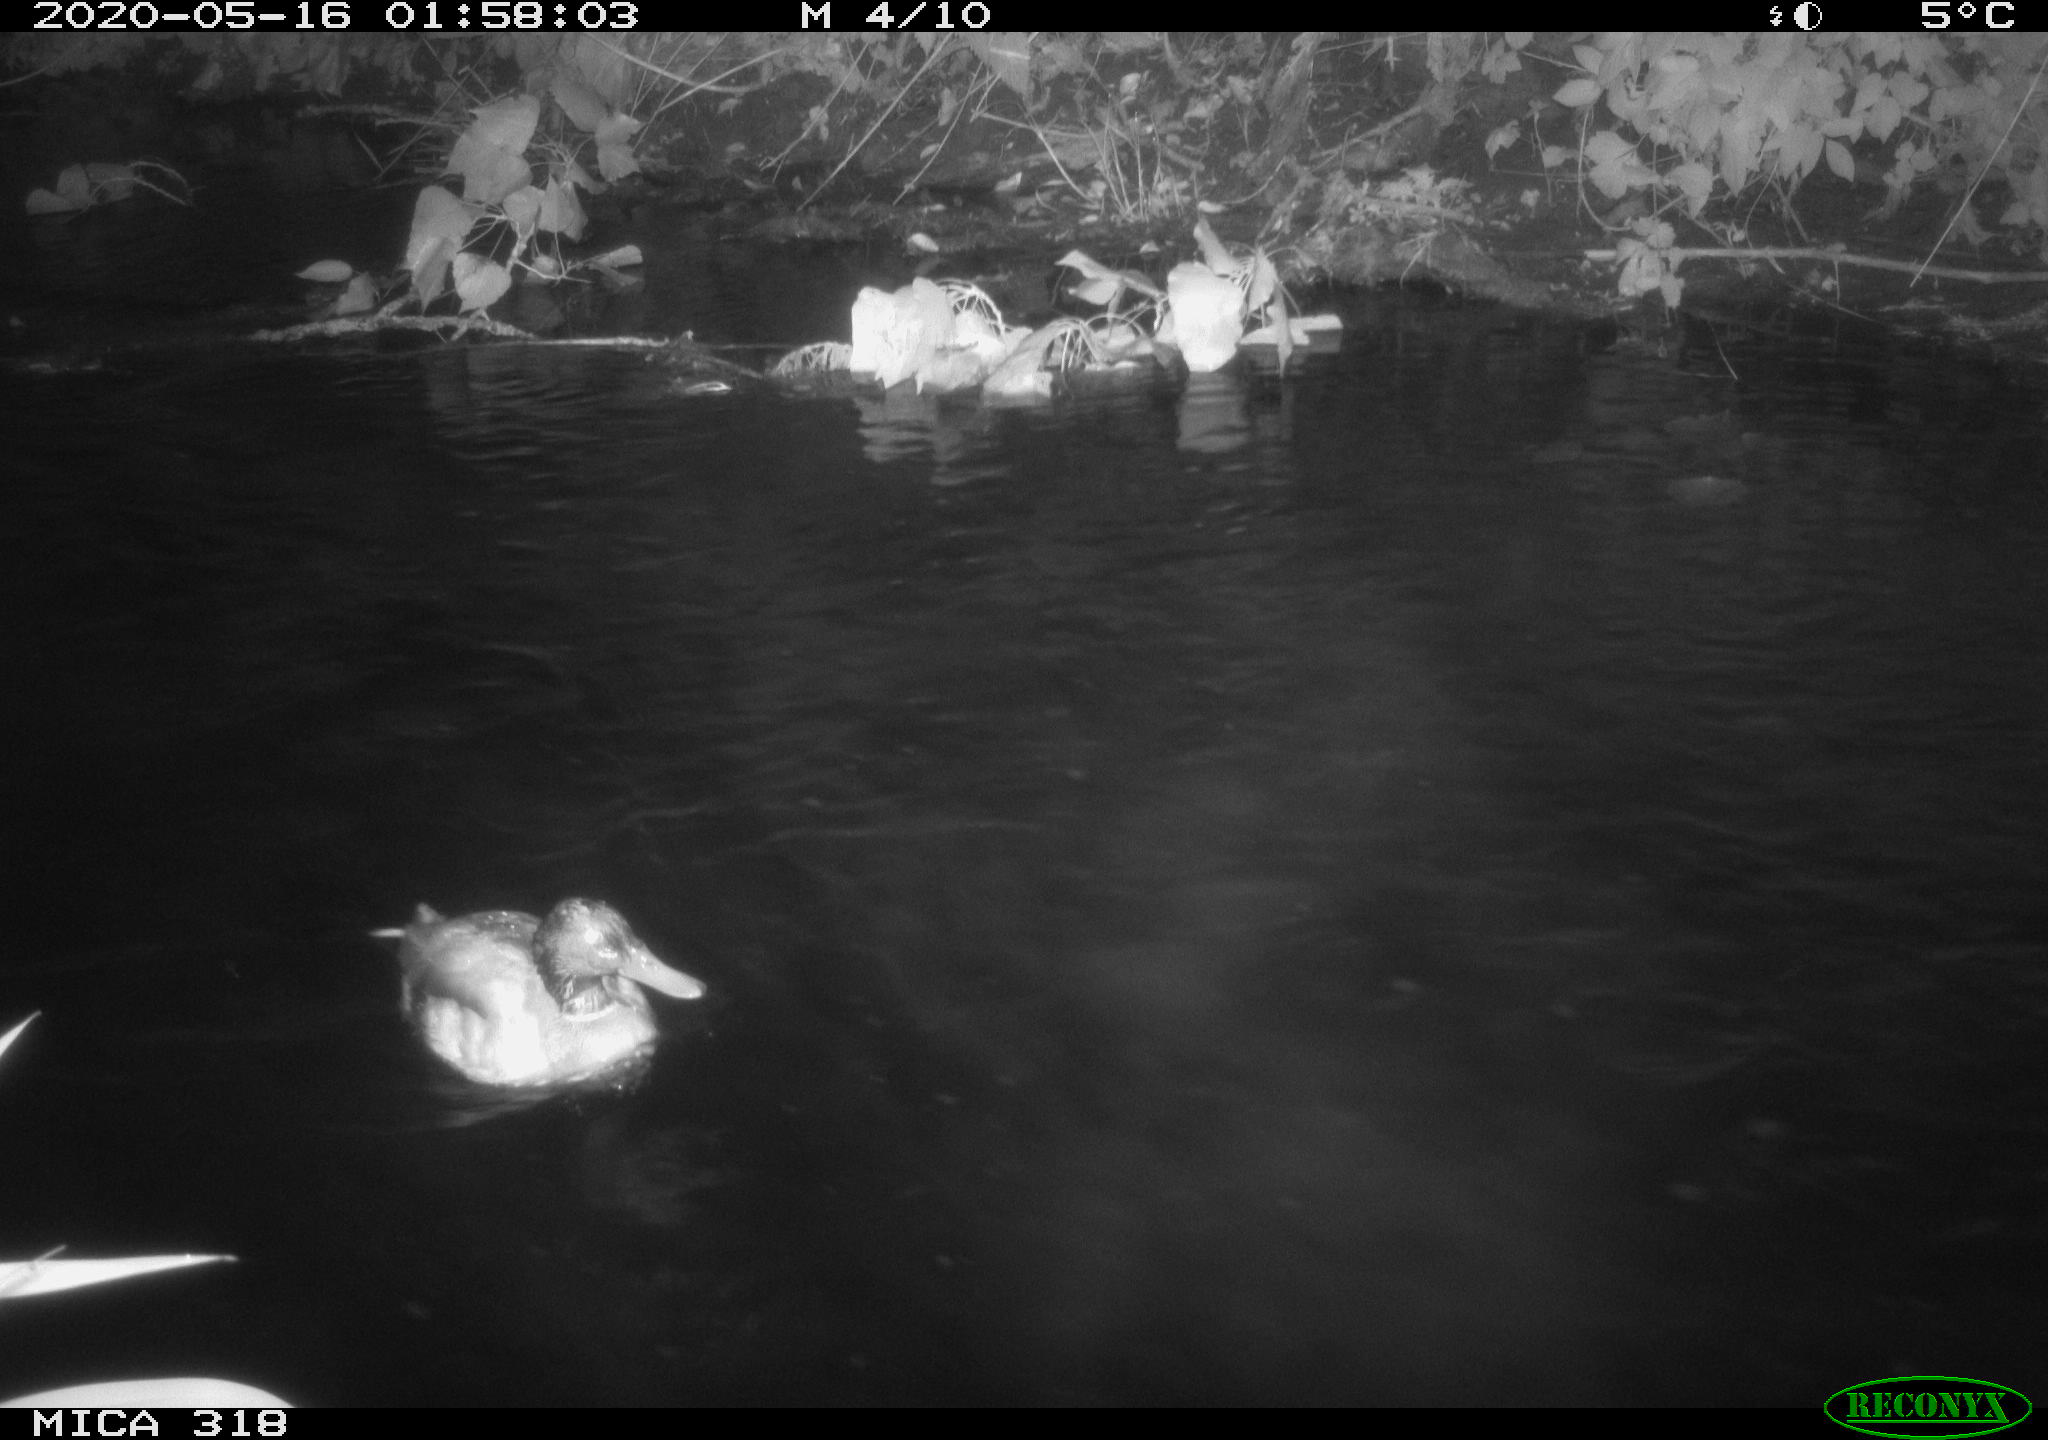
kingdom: Animalia
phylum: Chordata
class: Aves
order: Anseriformes
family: Anatidae
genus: Anas
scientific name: Anas platyrhynchos
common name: Mallard
